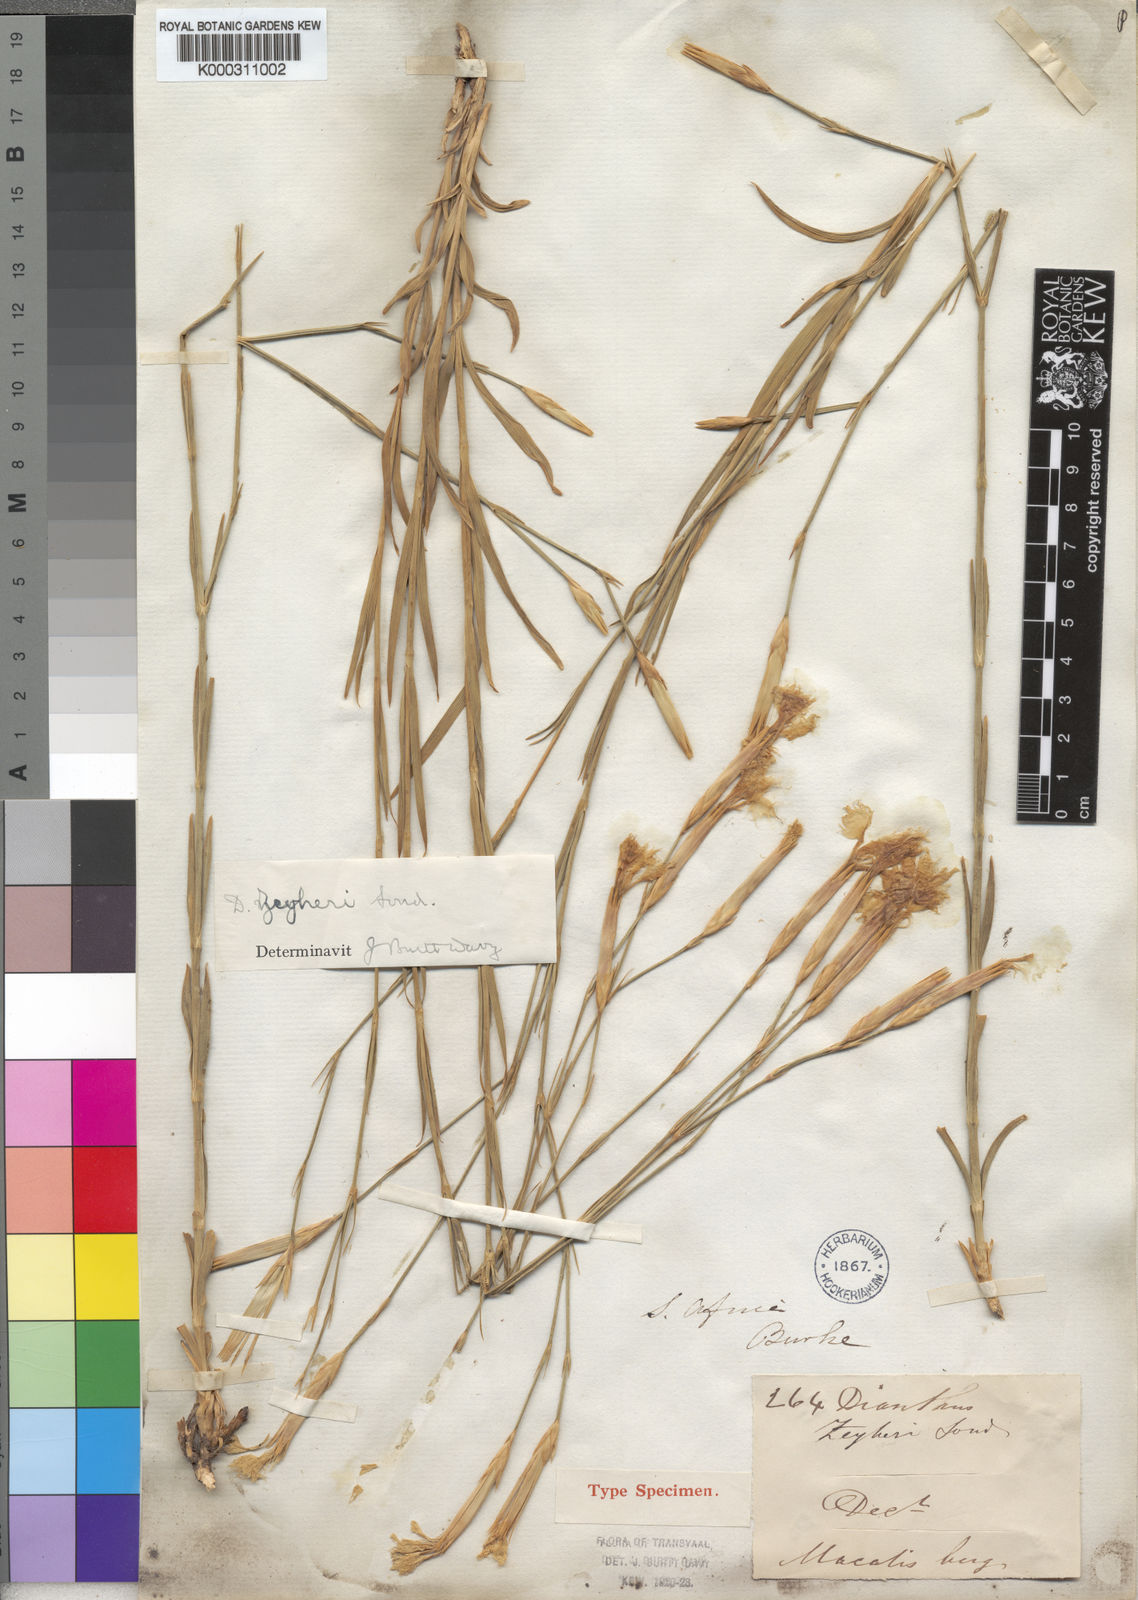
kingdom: Plantae
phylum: Tracheophyta
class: Magnoliopsida
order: Caryophyllales
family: Caryophyllaceae
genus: Dianthus
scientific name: Dianthus zeyheri
